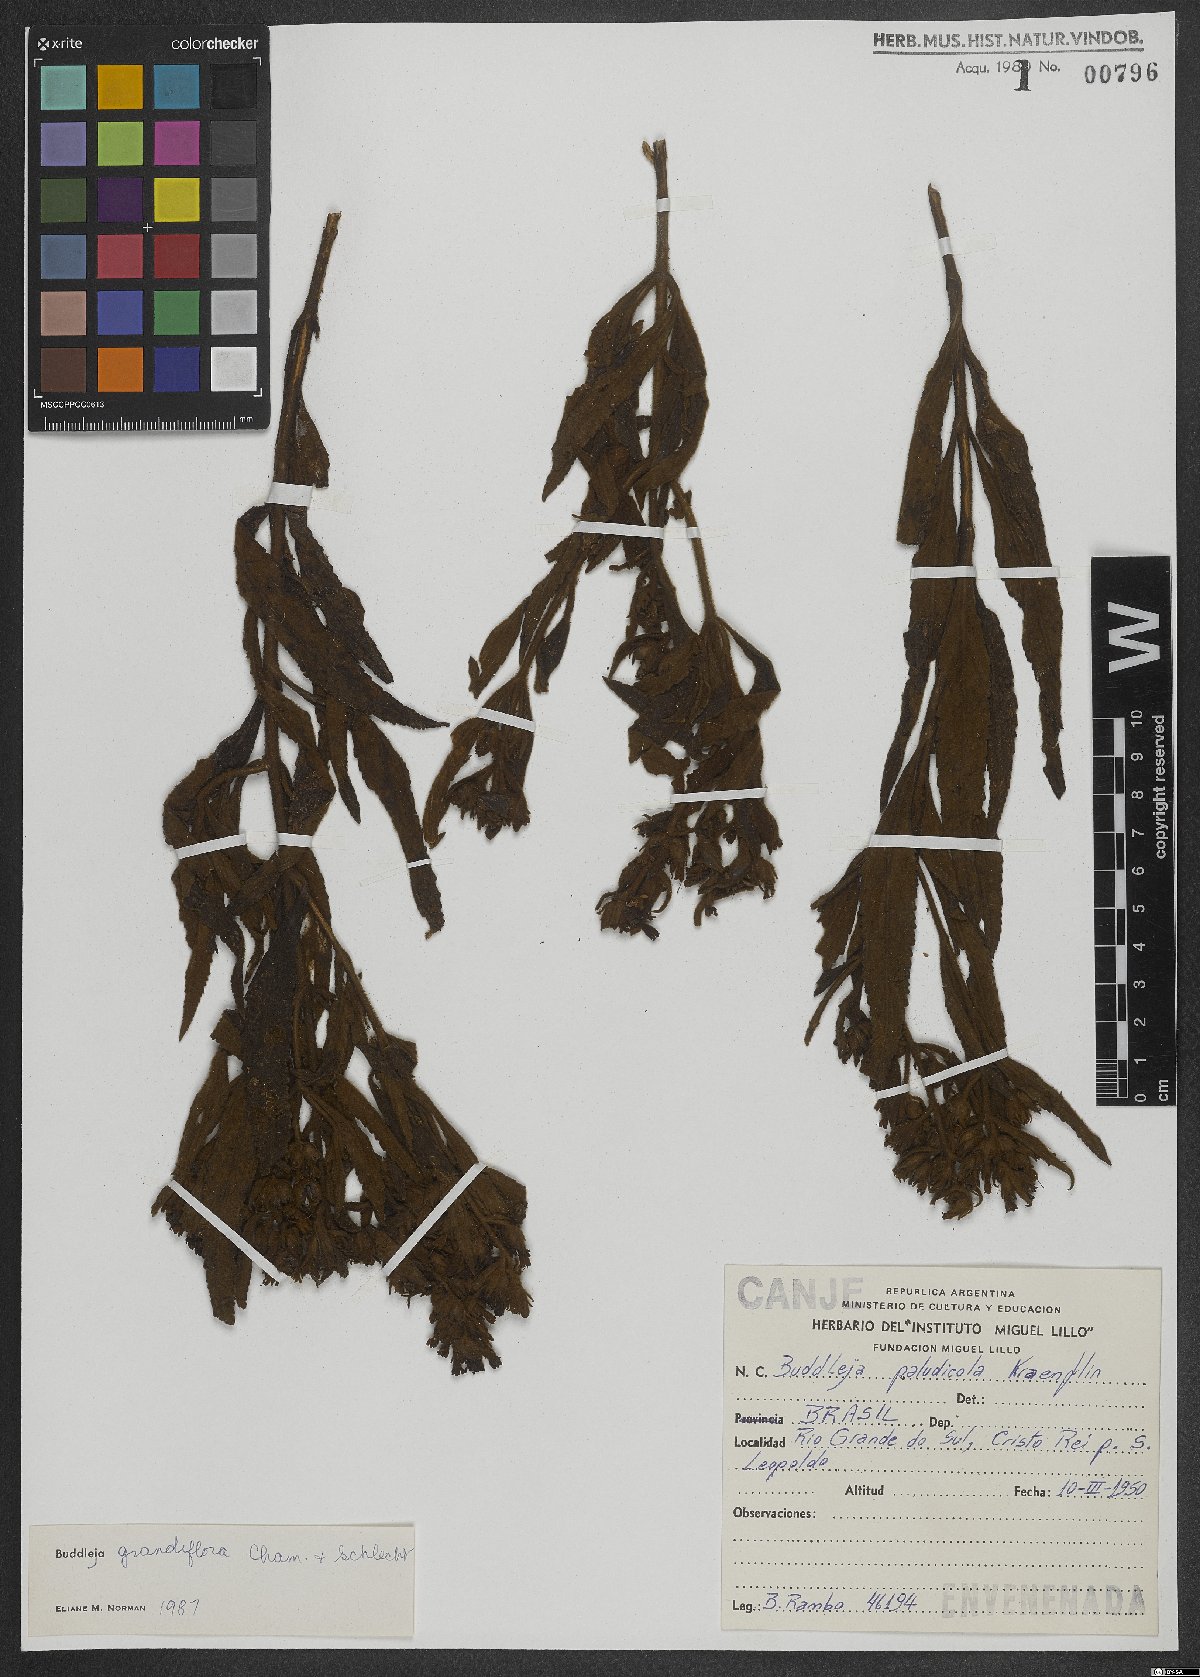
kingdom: Plantae
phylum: Tracheophyta
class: Magnoliopsida
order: Lamiales
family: Scrophulariaceae
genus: Buddleja
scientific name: Buddleja grandiflora
